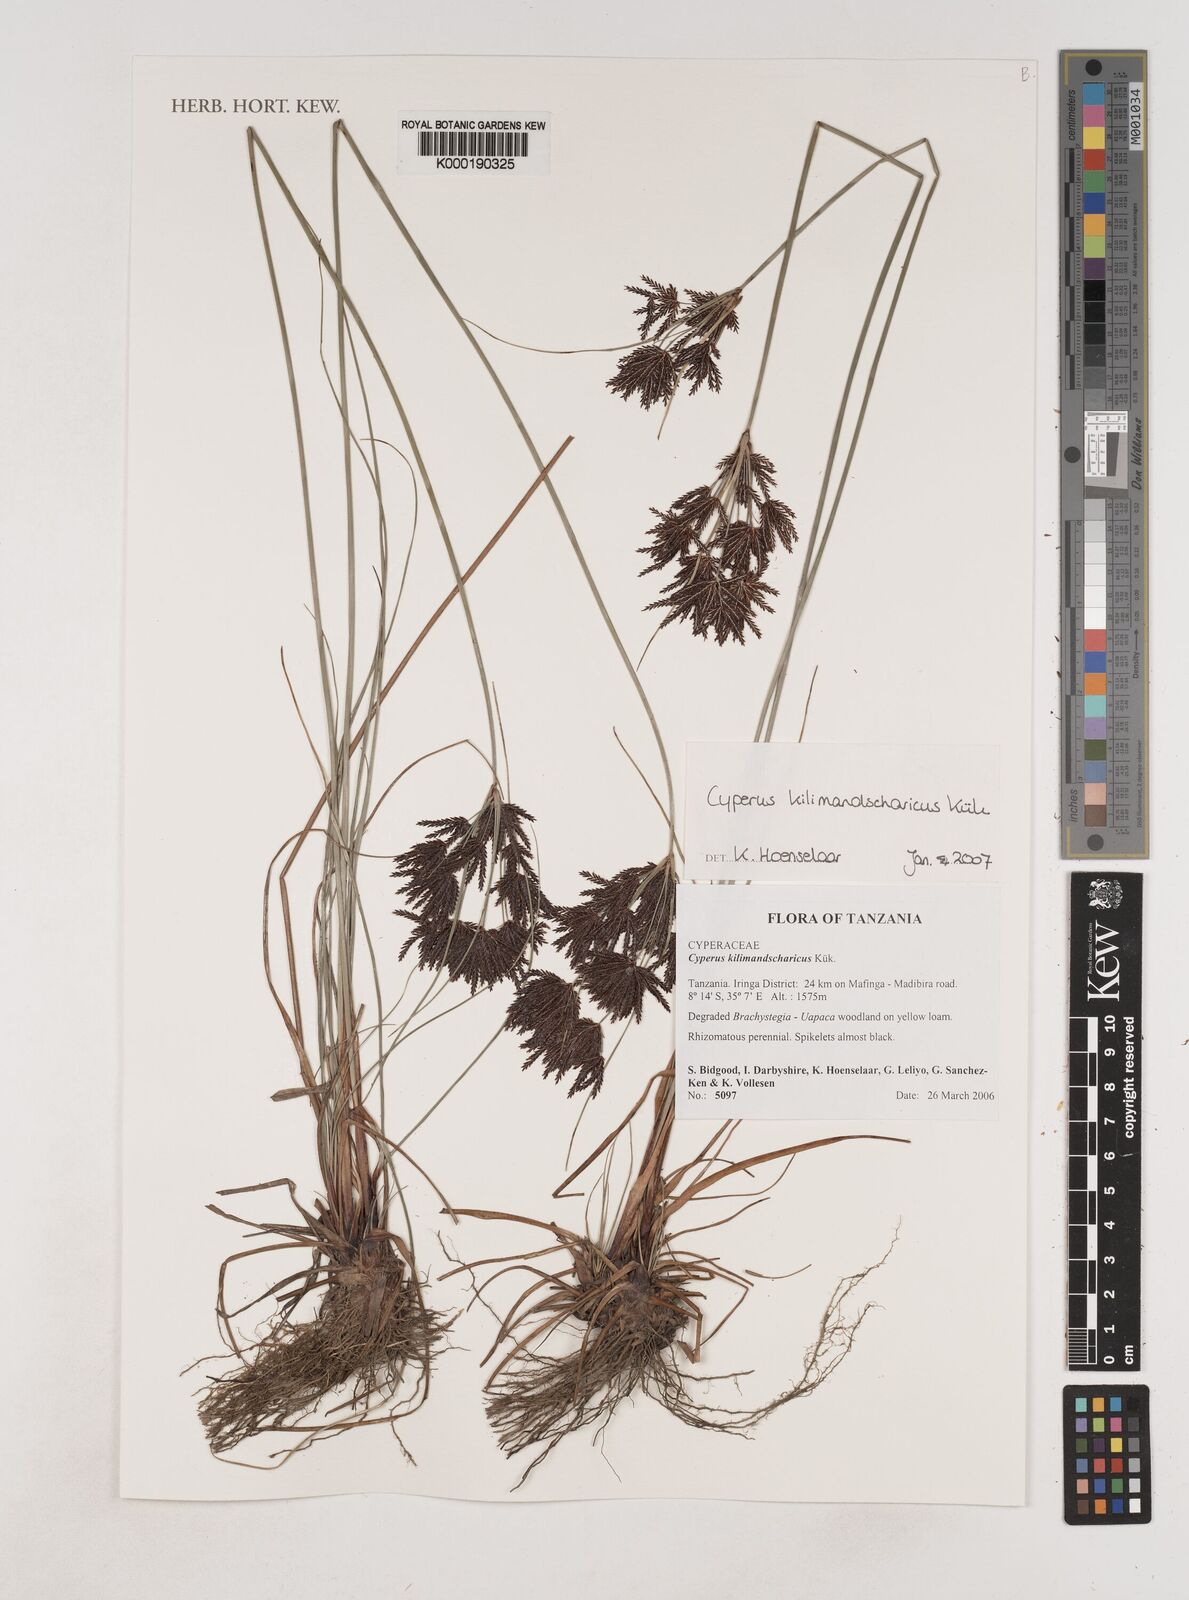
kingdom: Plantae
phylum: Tracheophyta
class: Liliopsida
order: Poales
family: Cyperaceae
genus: Cyperus
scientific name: Cyperus
